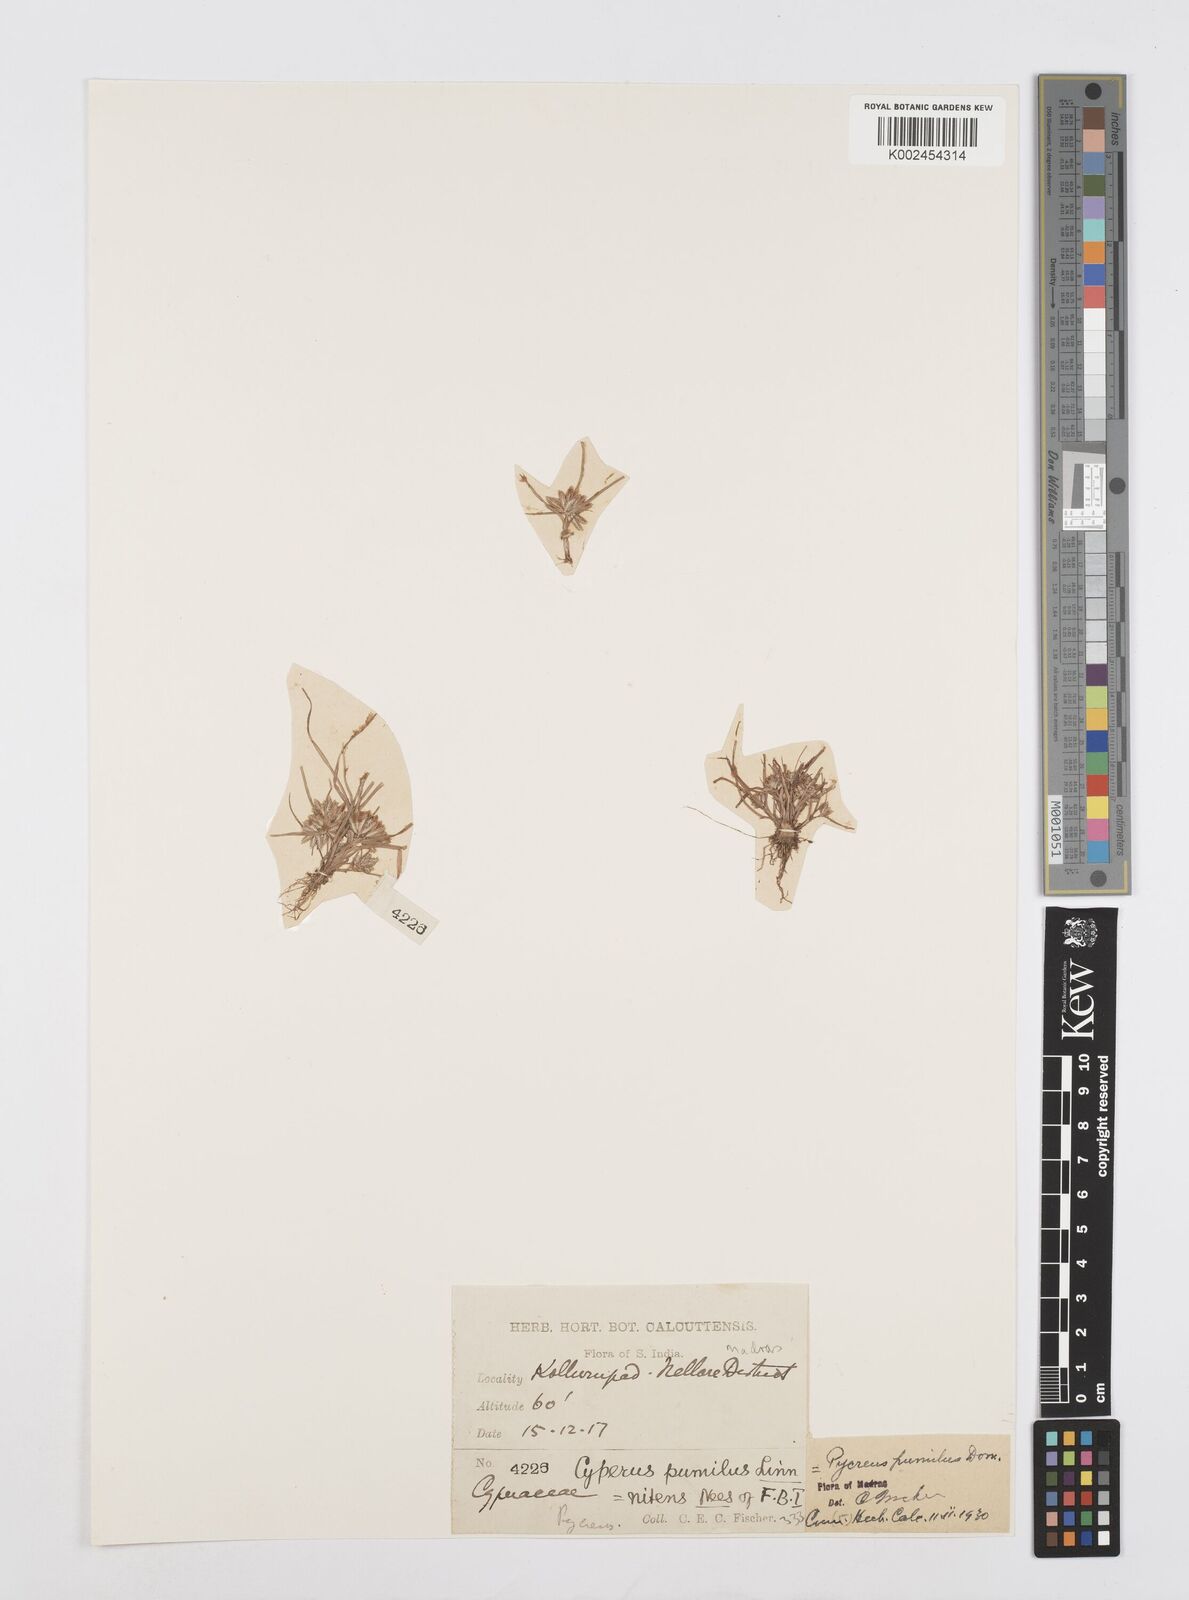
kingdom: Plantae
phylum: Tracheophyta
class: Liliopsida
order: Poales
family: Cyperaceae
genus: Cyperus
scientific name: Cyperus pumilus
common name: Low flatsedge
